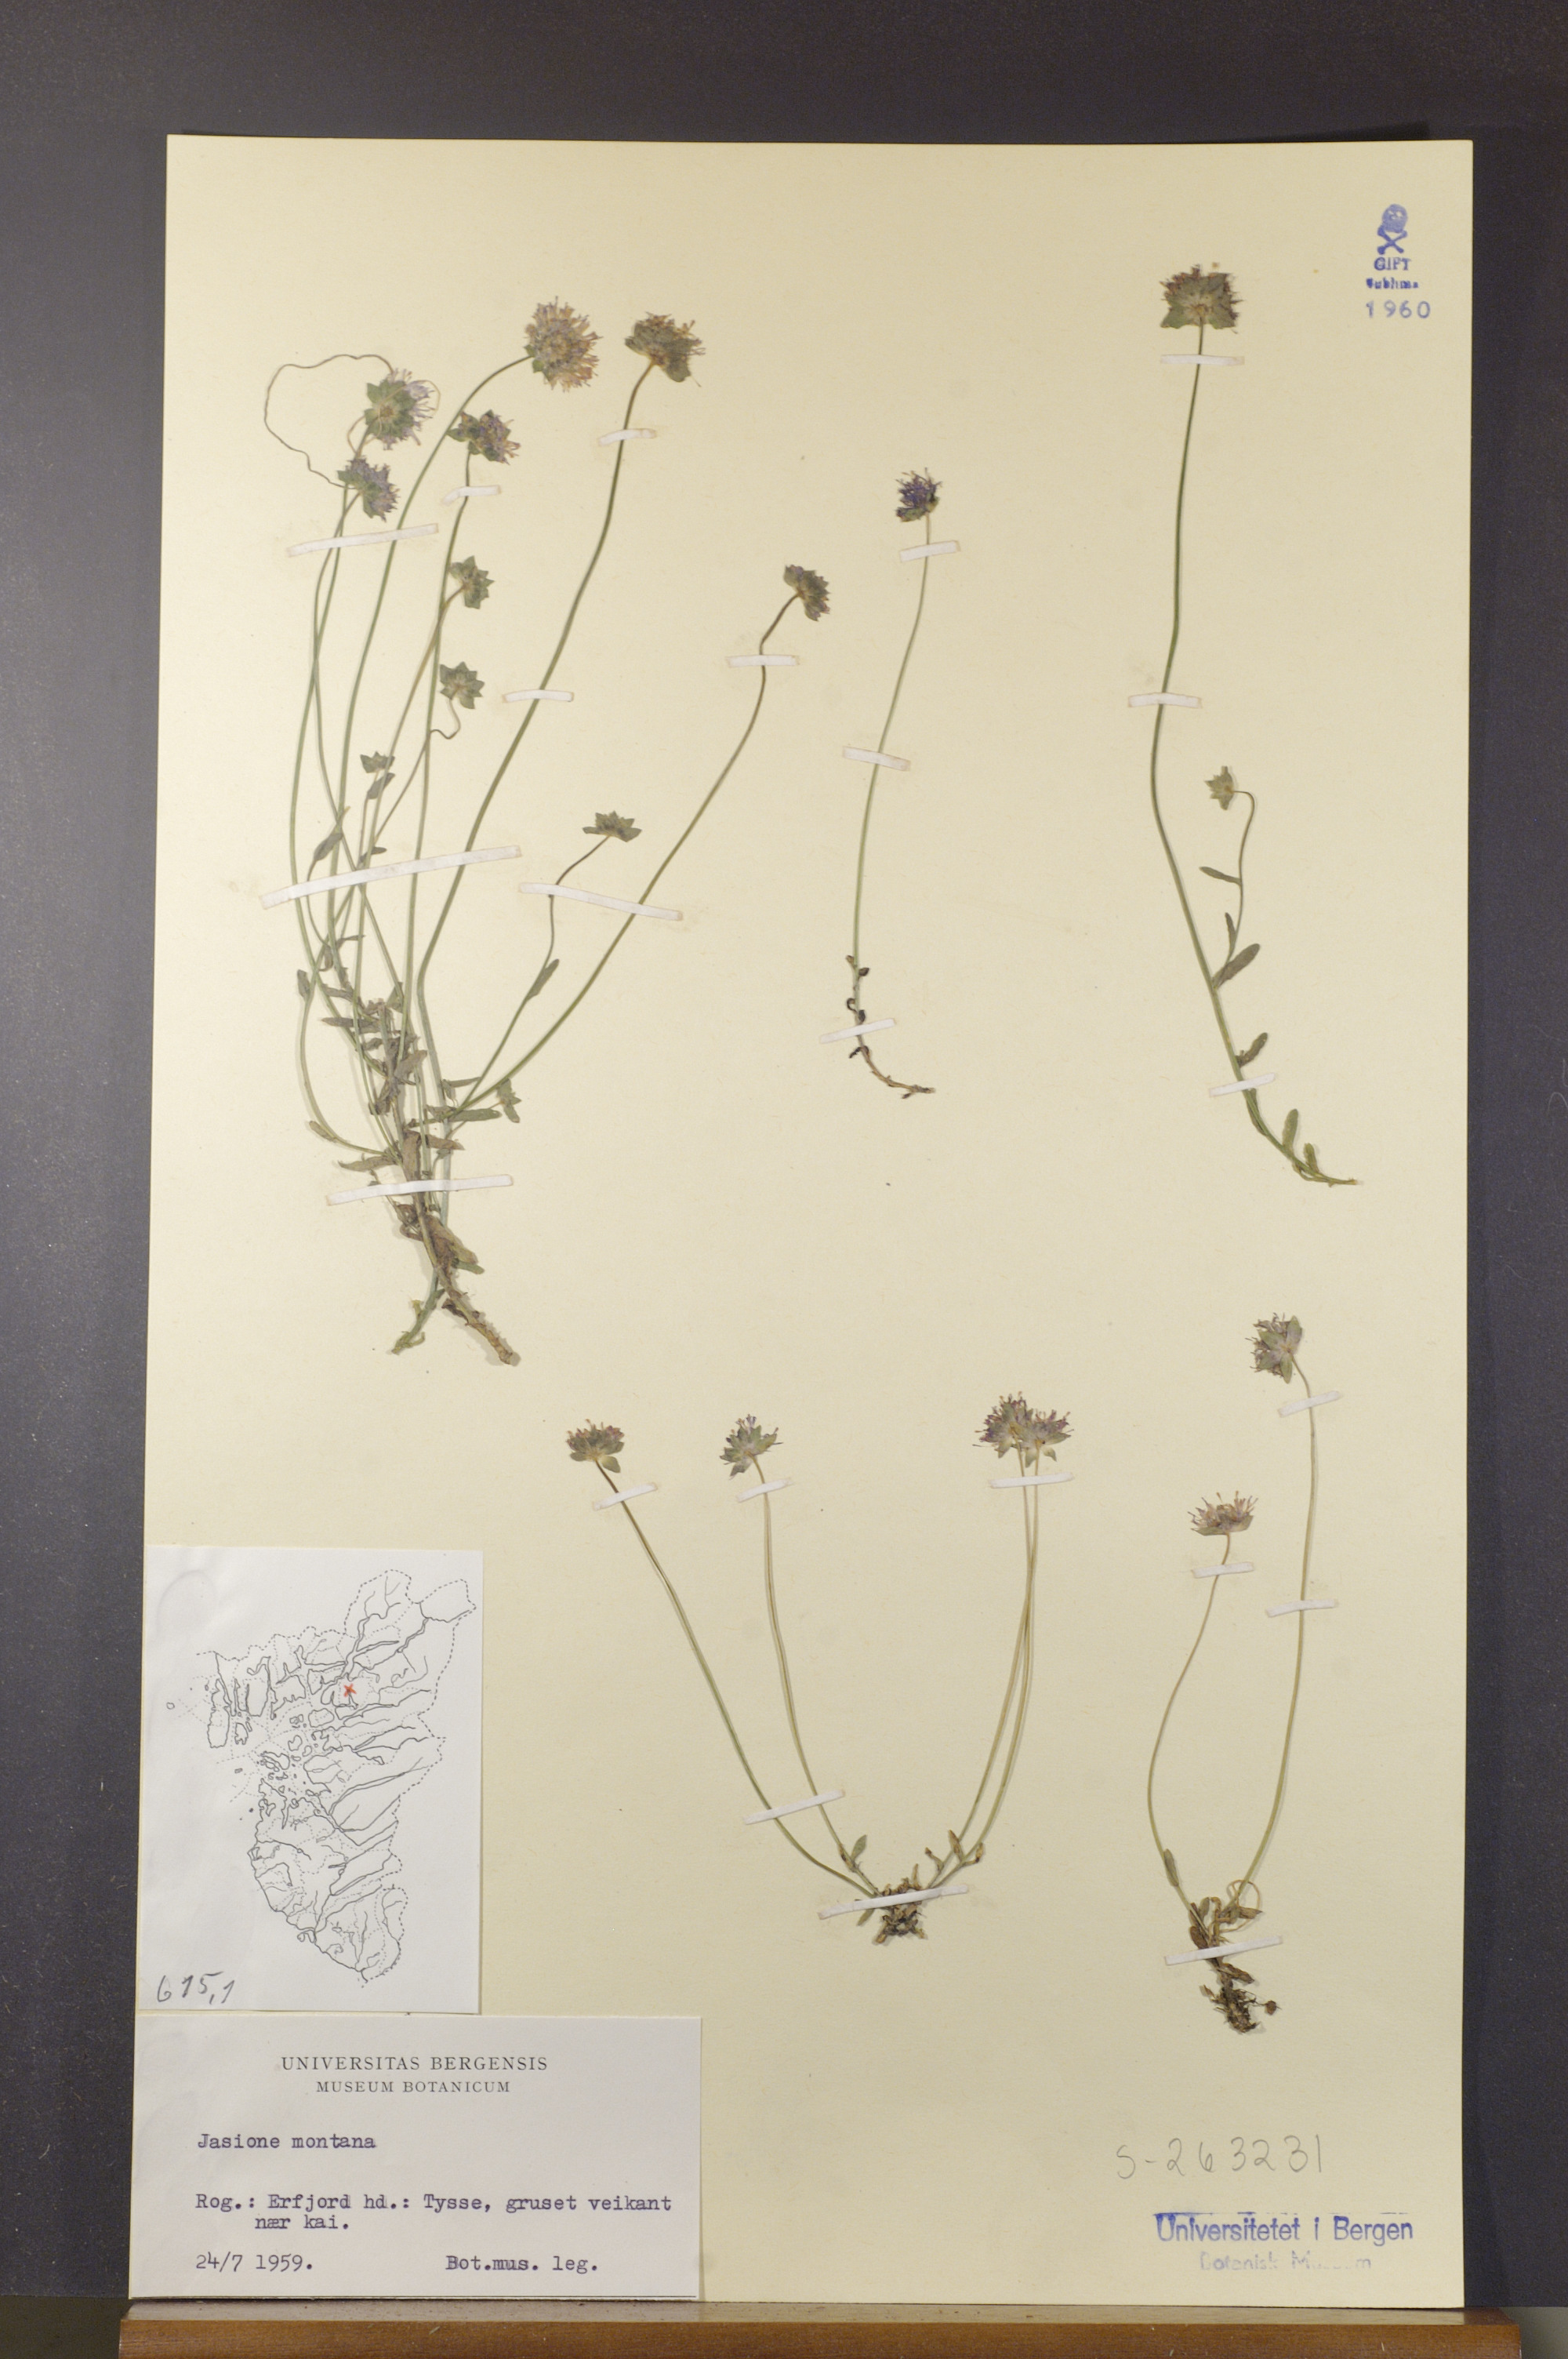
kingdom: Plantae
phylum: Tracheophyta
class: Magnoliopsida
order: Asterales
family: Campanulaceae
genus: Jasione
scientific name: Jasione montana
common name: Sheep's-bit
